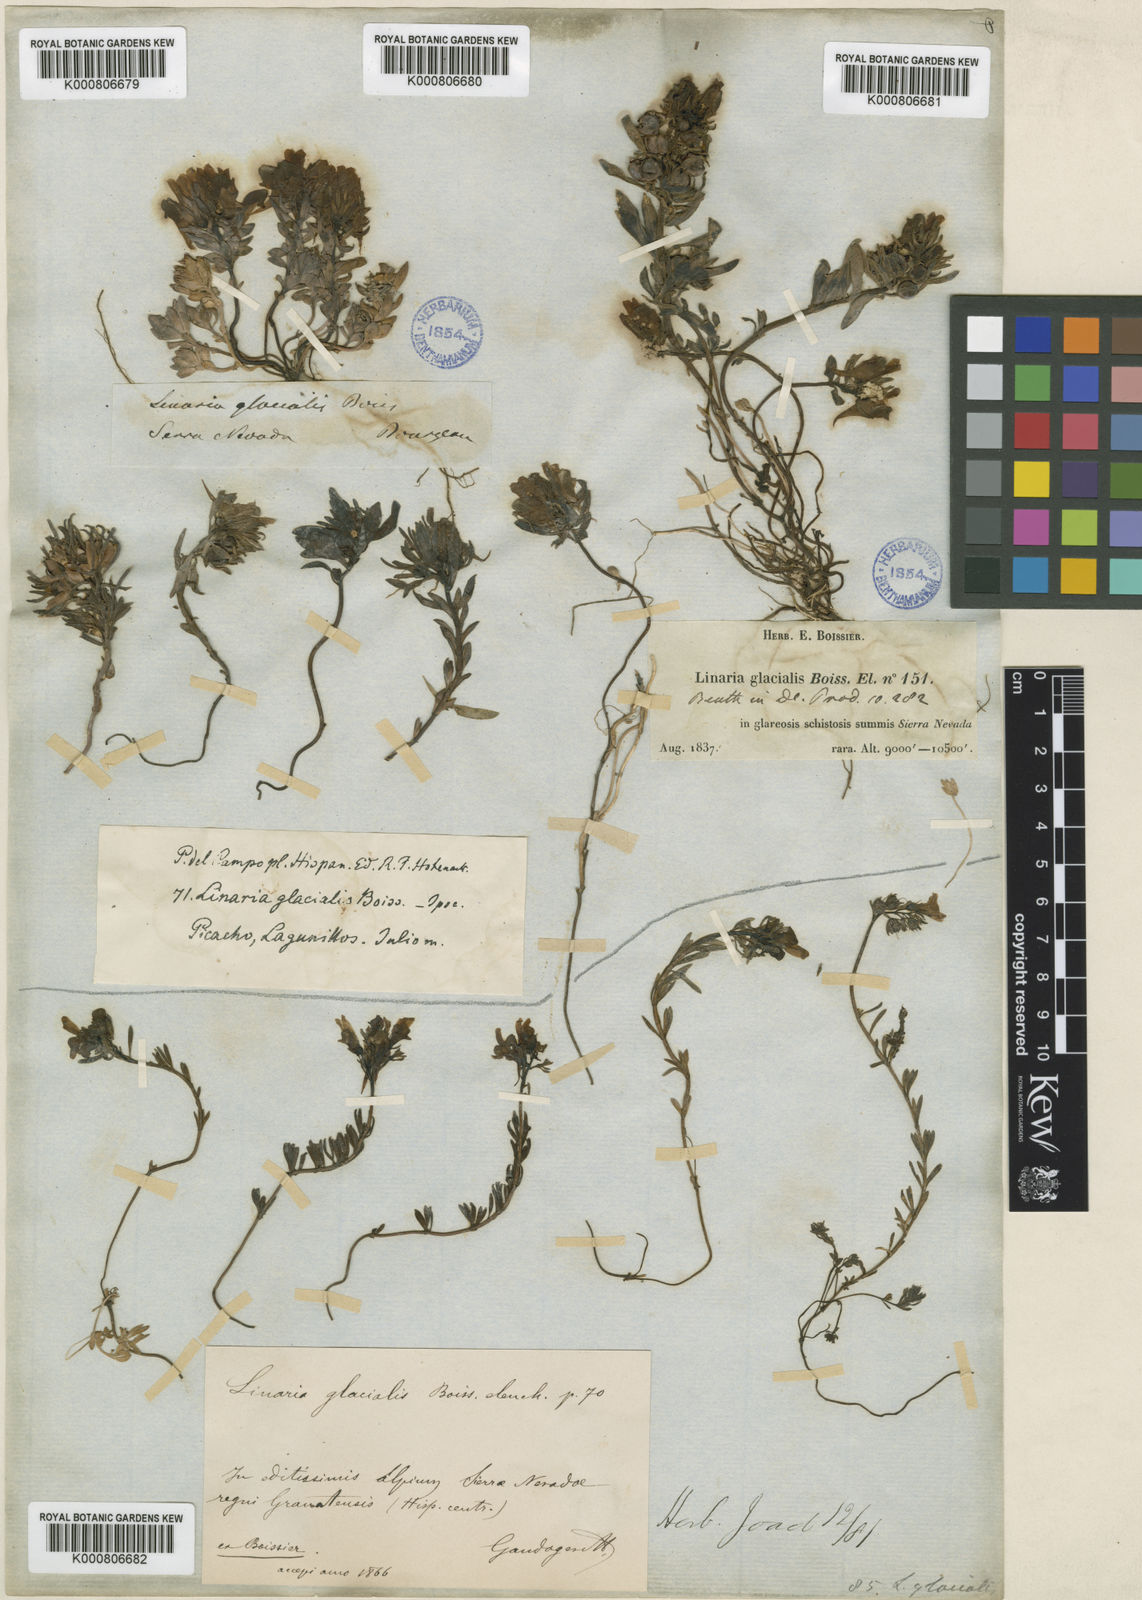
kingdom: Plantae
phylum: Tracheophyta
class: Magnoliopsida
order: Lamiales
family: Plantaginaceae
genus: Linaria
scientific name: Linaria glacialis
